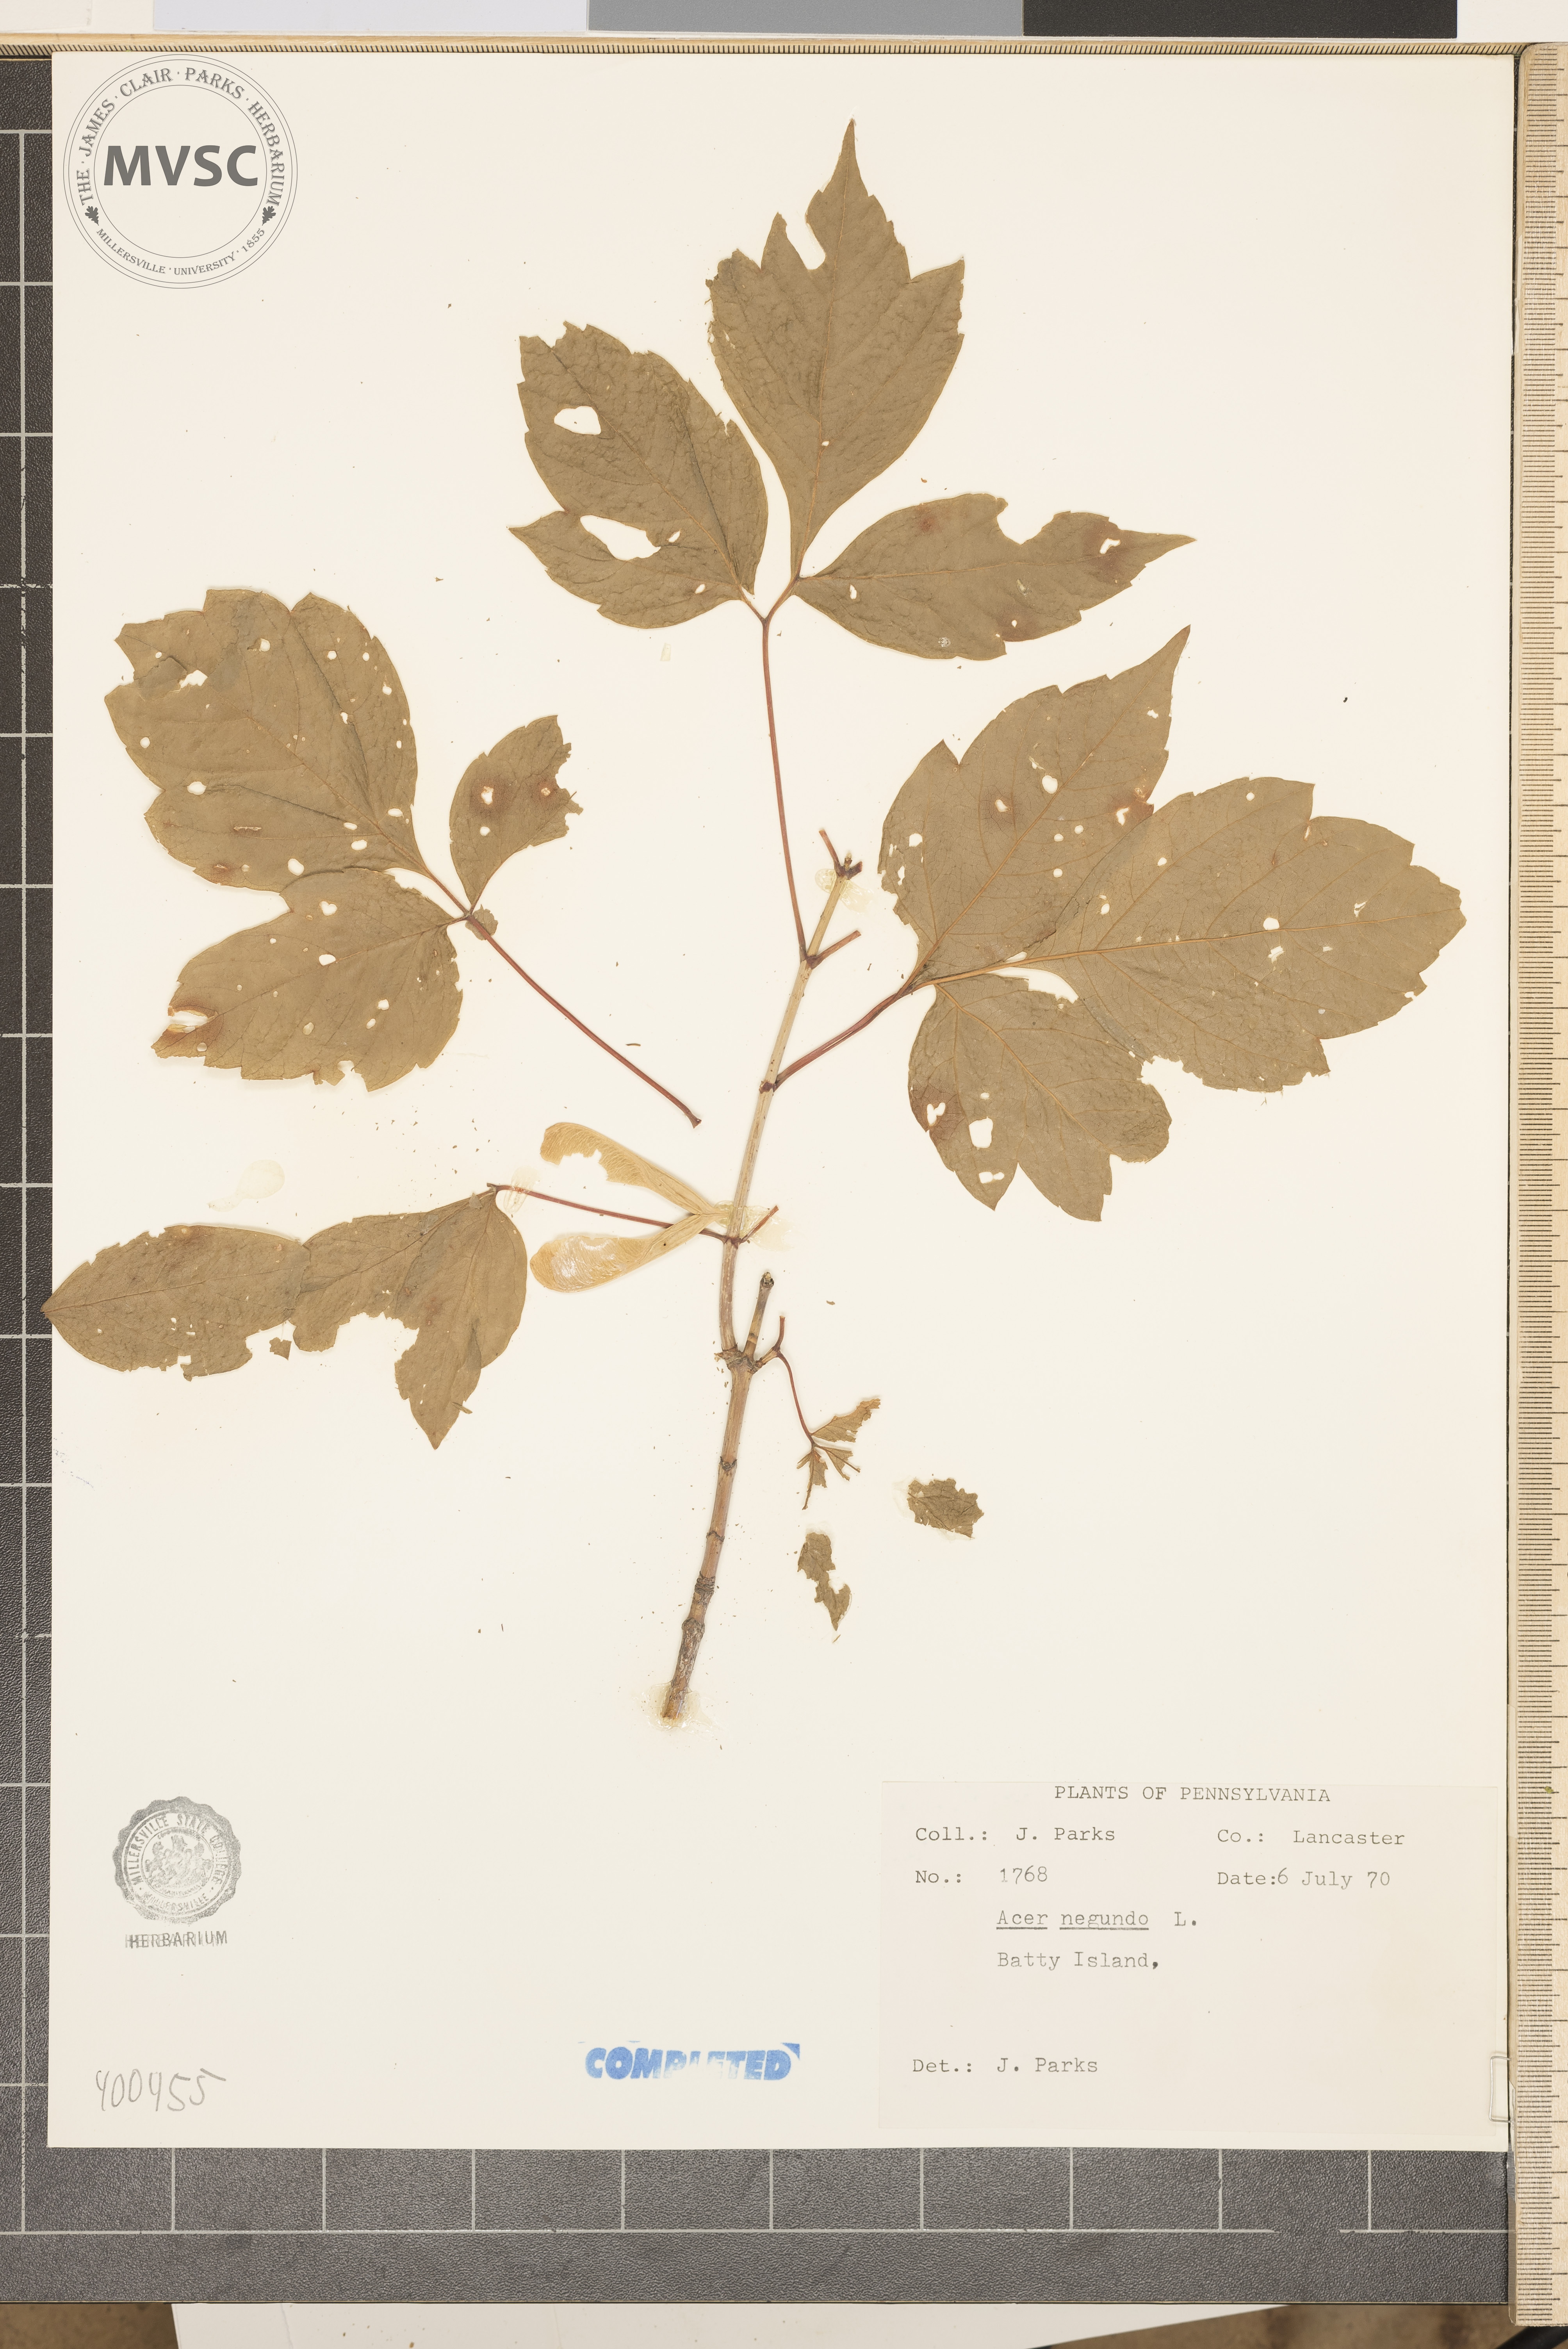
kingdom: Plantae
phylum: Tracheophyta
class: Magnoliopsida
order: Sapindales
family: Sapindaceae
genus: Acer
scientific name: Acer negundo
